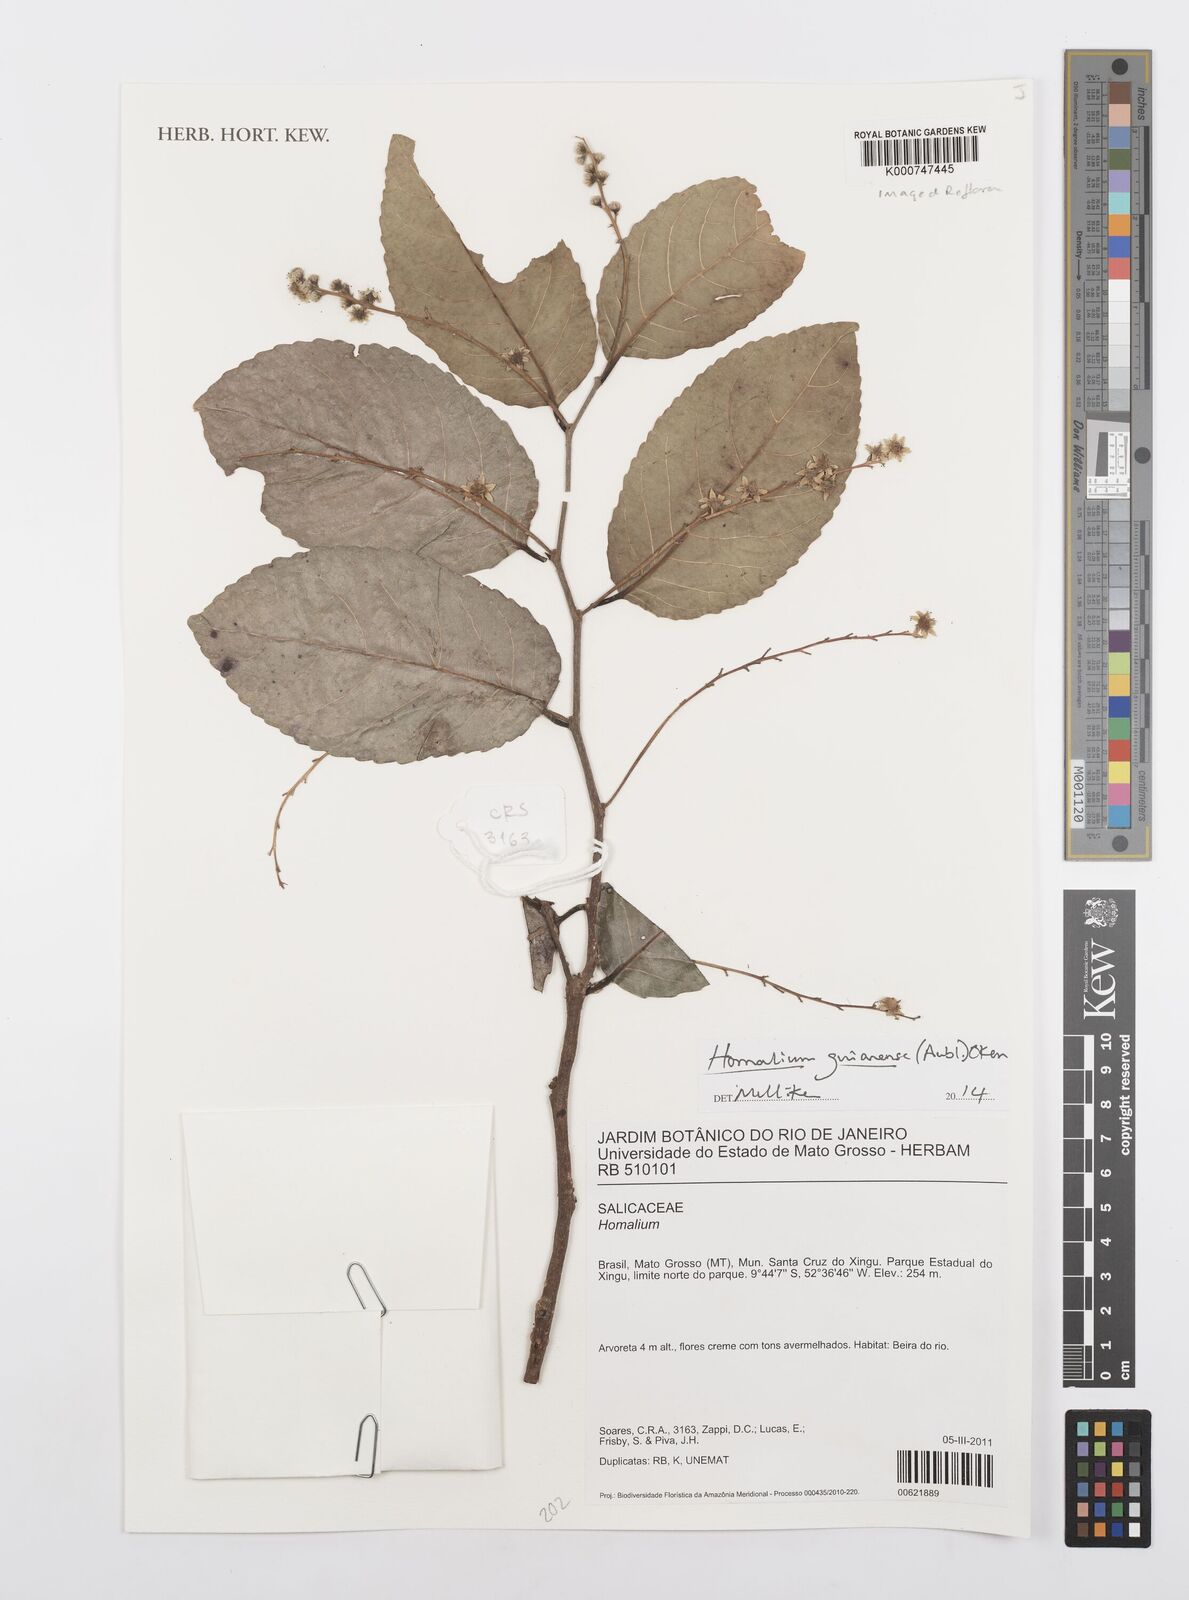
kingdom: Plantae
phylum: Tracheophyta
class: Magnoliopsida
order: Malpighiales
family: Salicaceae
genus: Homalium
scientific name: Homalium guianense
